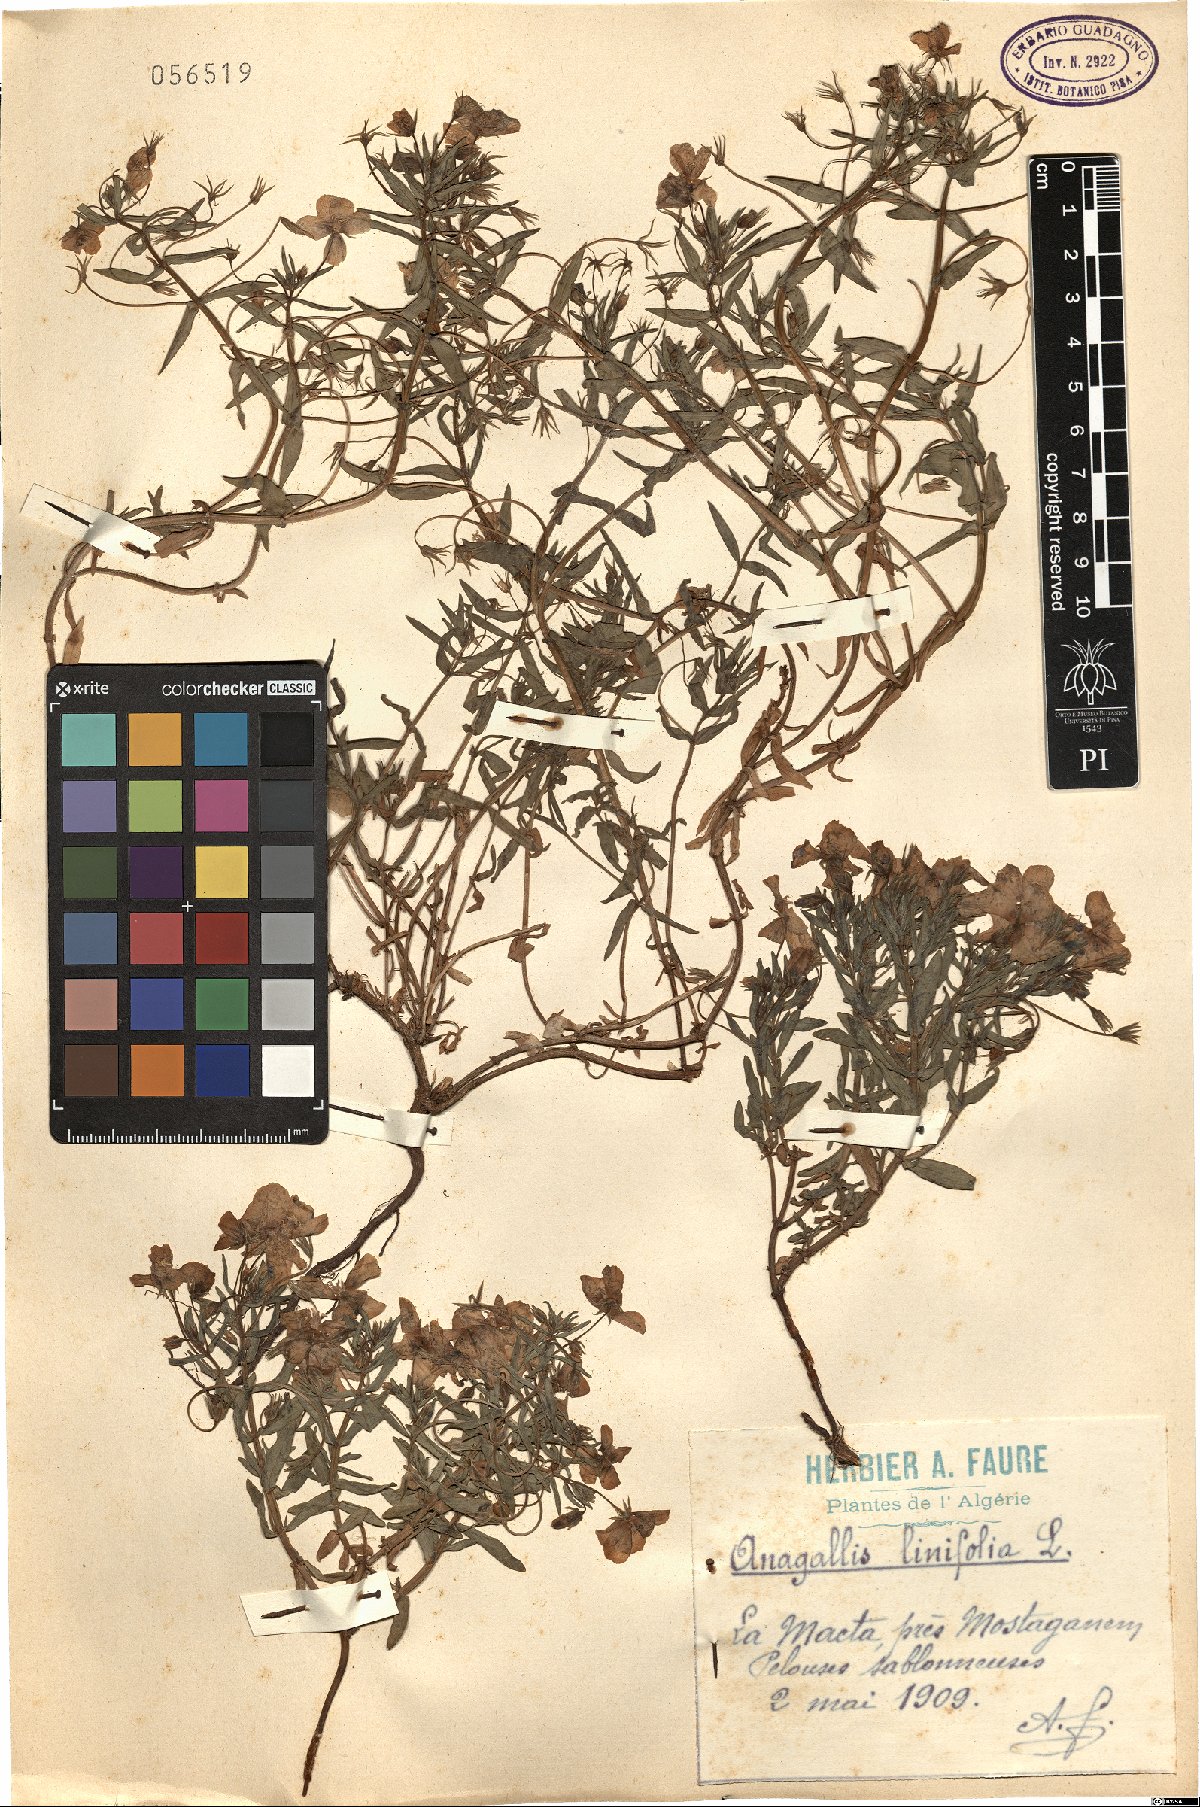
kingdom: Plantae
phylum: Tracheophyta
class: Magnoliopsida
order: Ericales
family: Primulaceae
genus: Lysimachia
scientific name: Lysimachia monelli
